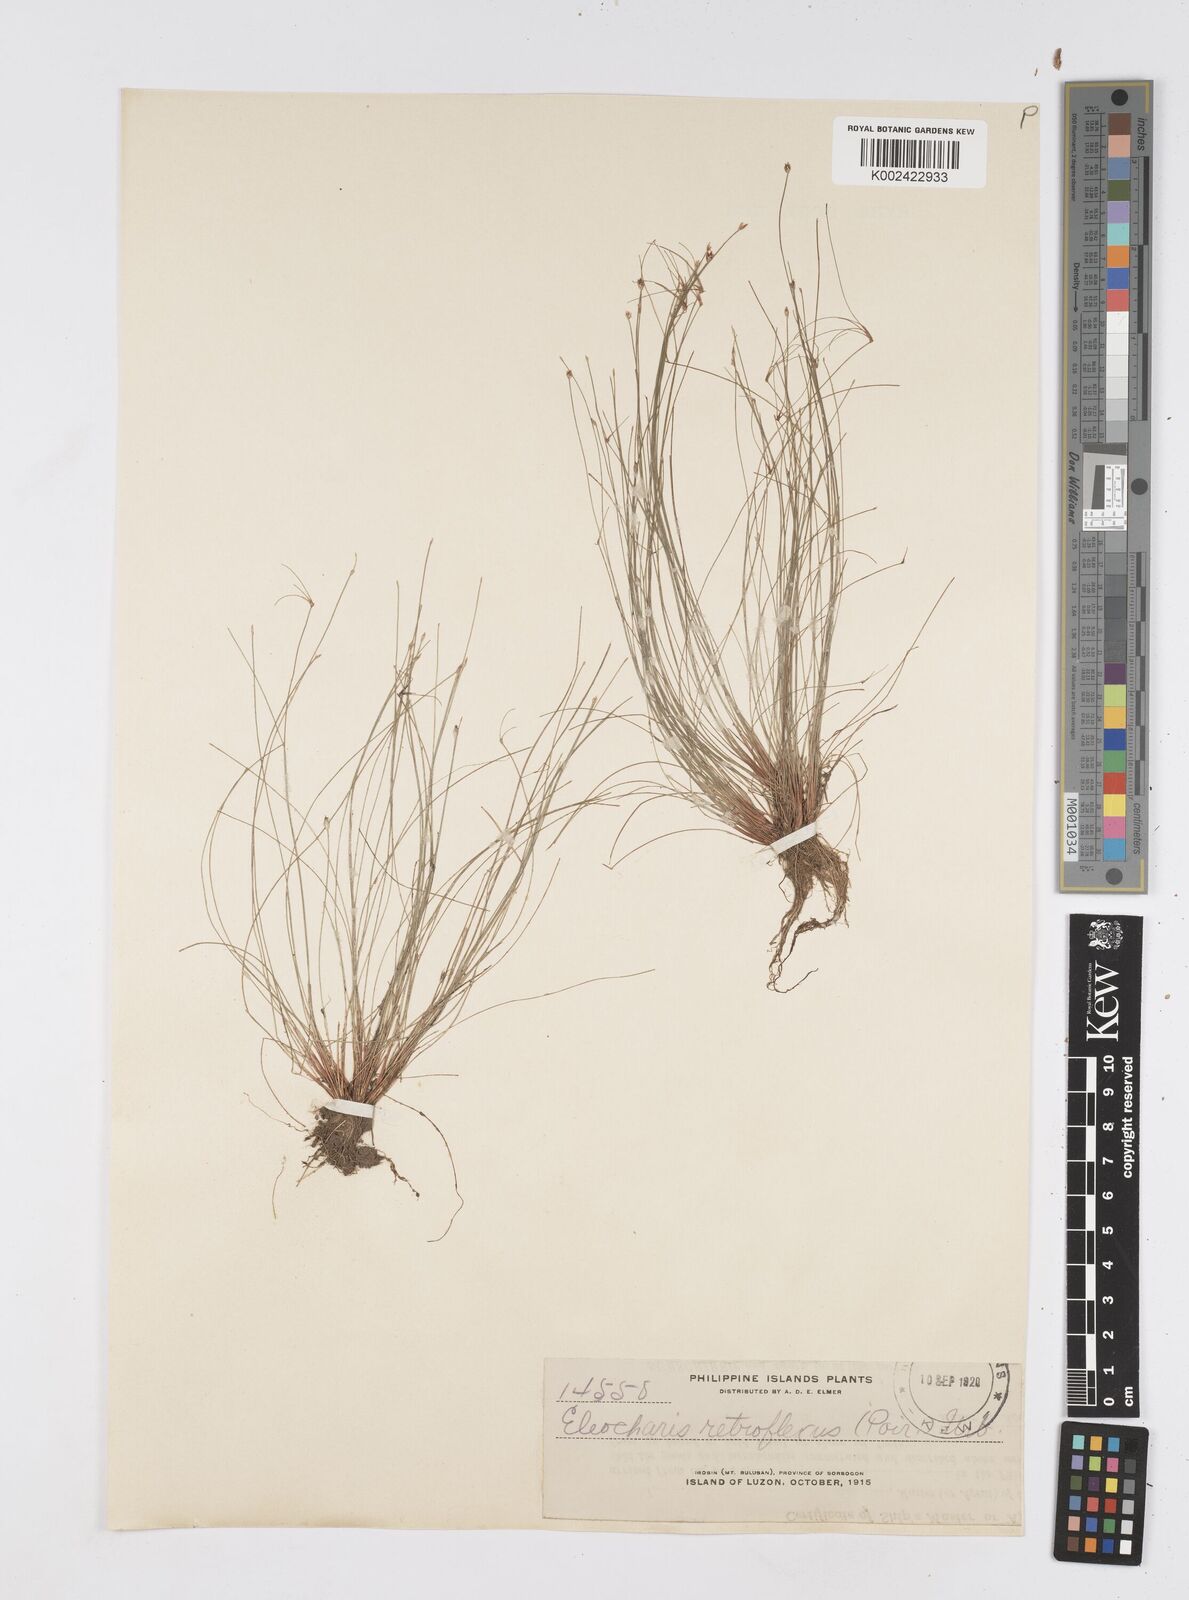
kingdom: Plantae
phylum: Tracheophyta
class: Liliopsida
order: Poales
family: Cyperaceae
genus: Eleocharis
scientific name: Eleocharis retroflexa
